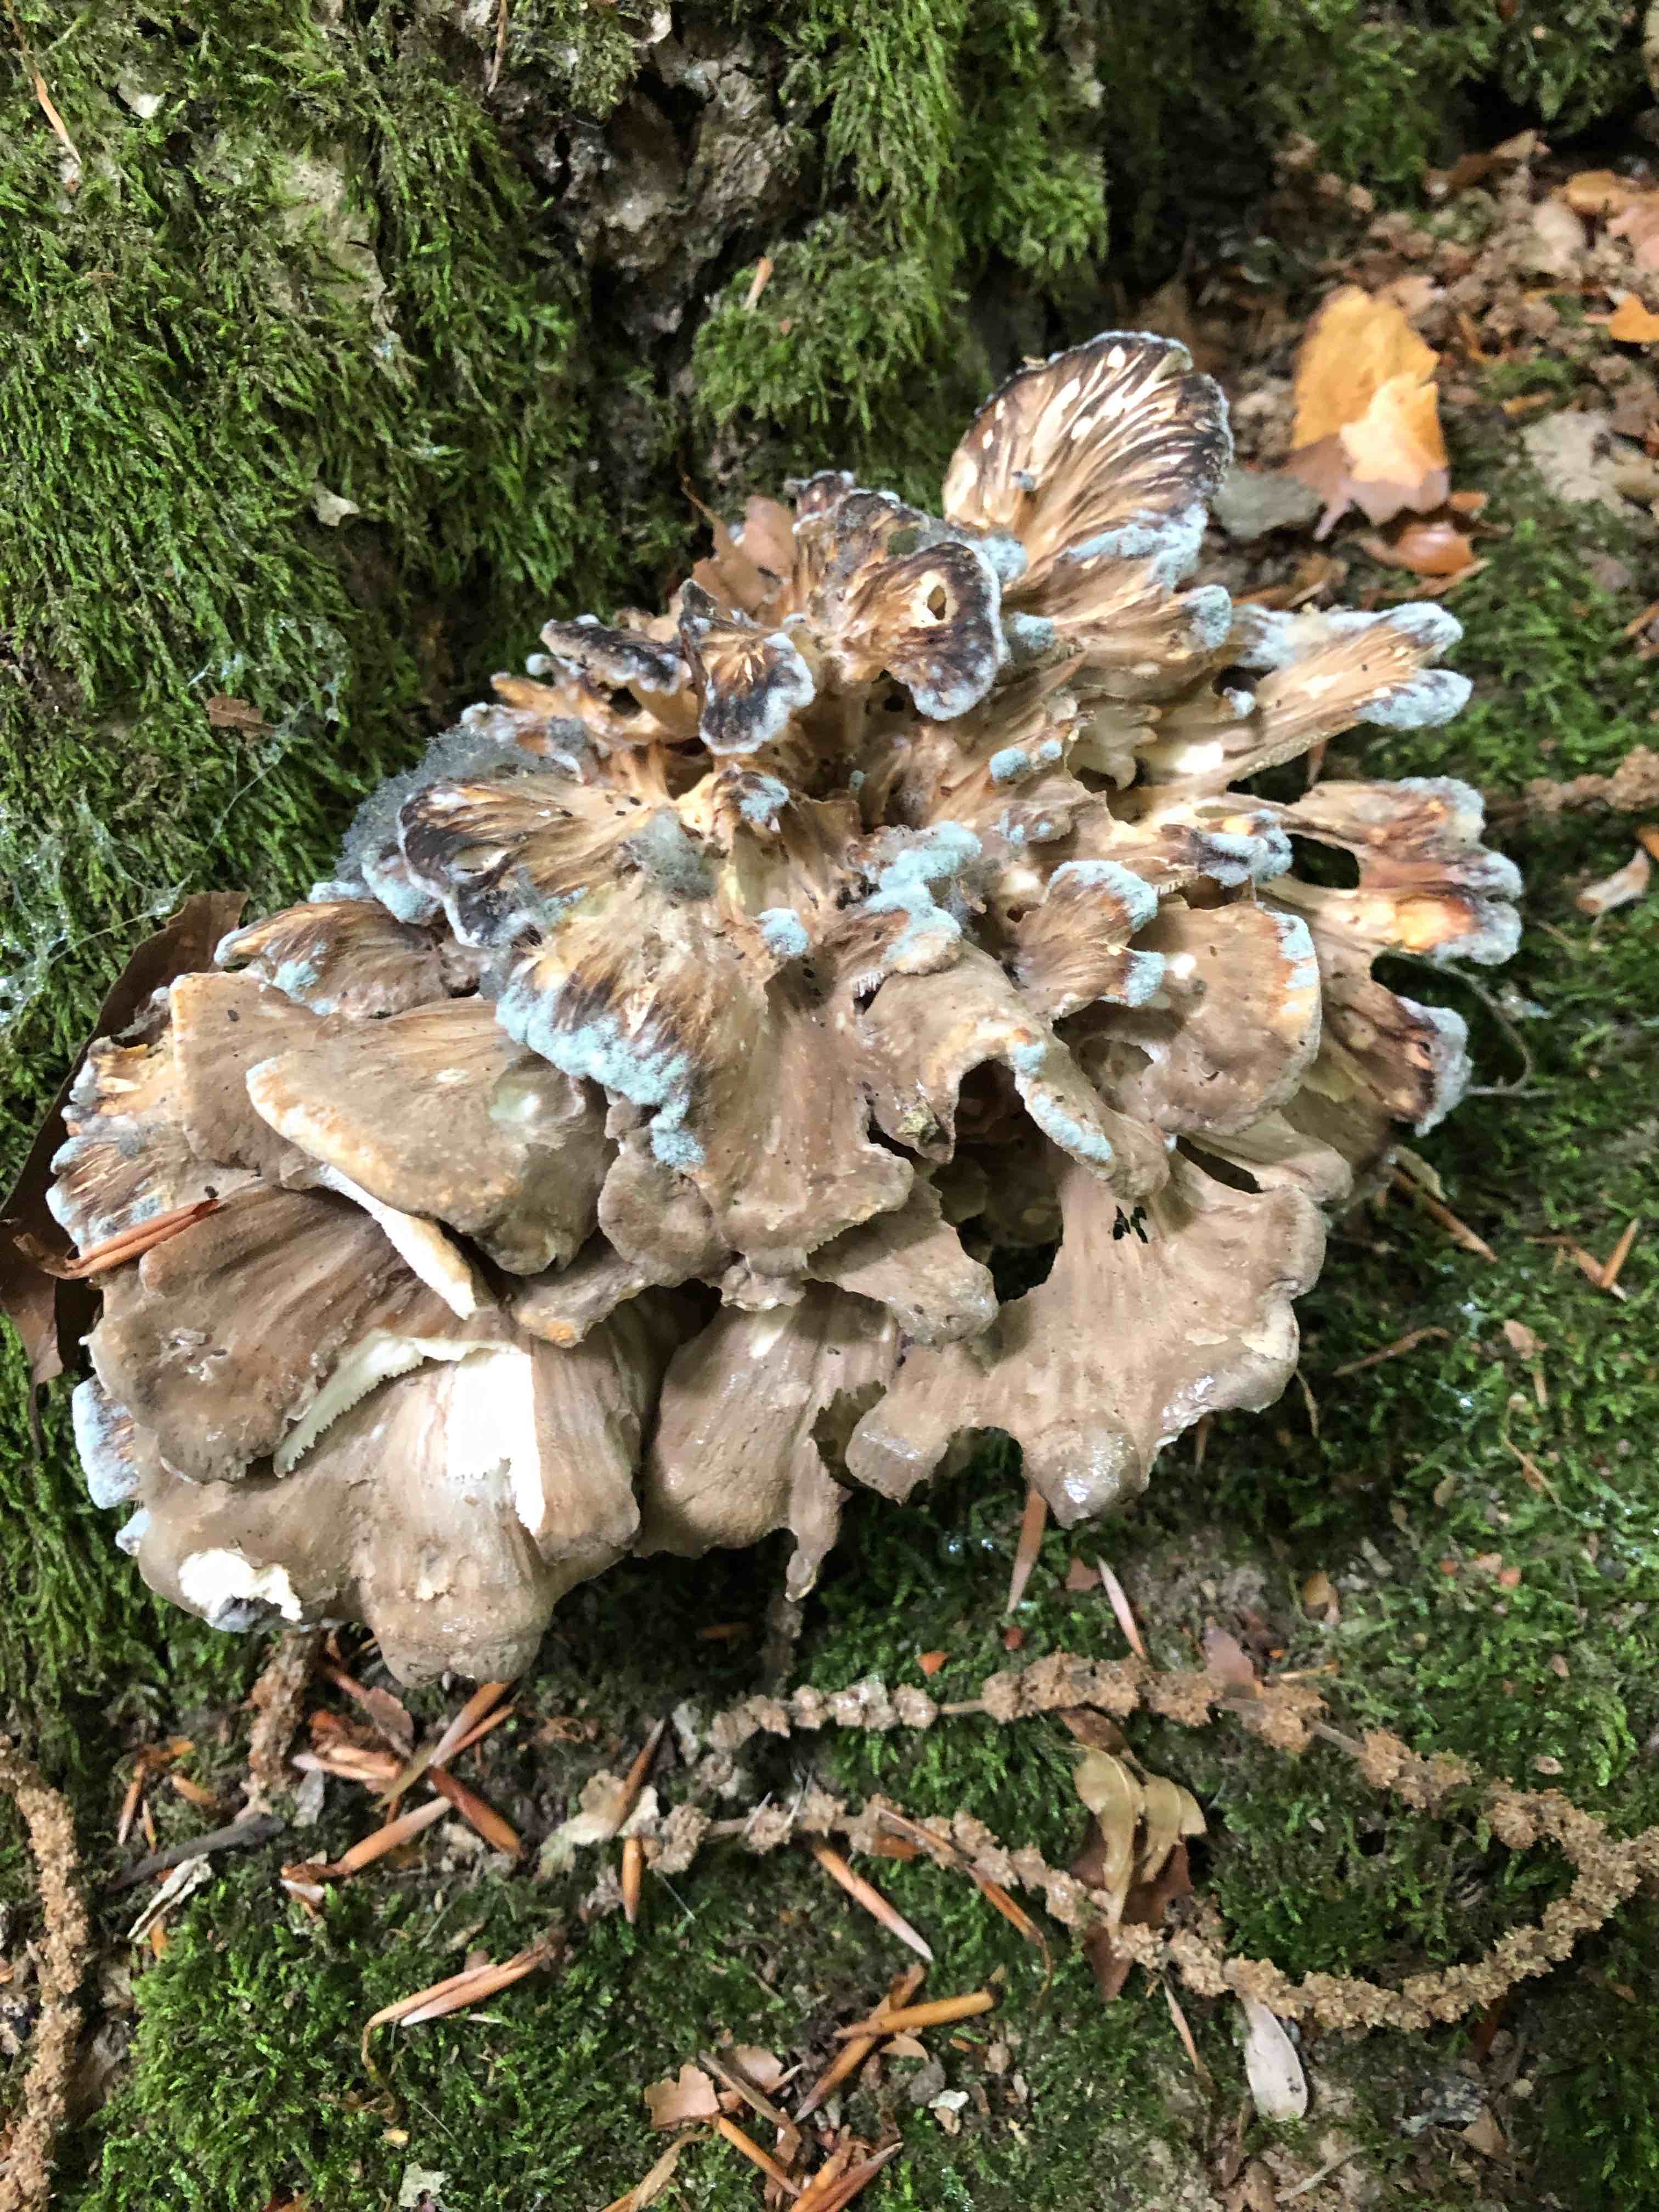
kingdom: Fungi
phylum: Basidiomycota
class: Agaricomycetes
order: Polyporales
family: Meripilaceae
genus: Meripilus
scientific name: Meripilus giganteus
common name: kæmpeporesvamp
